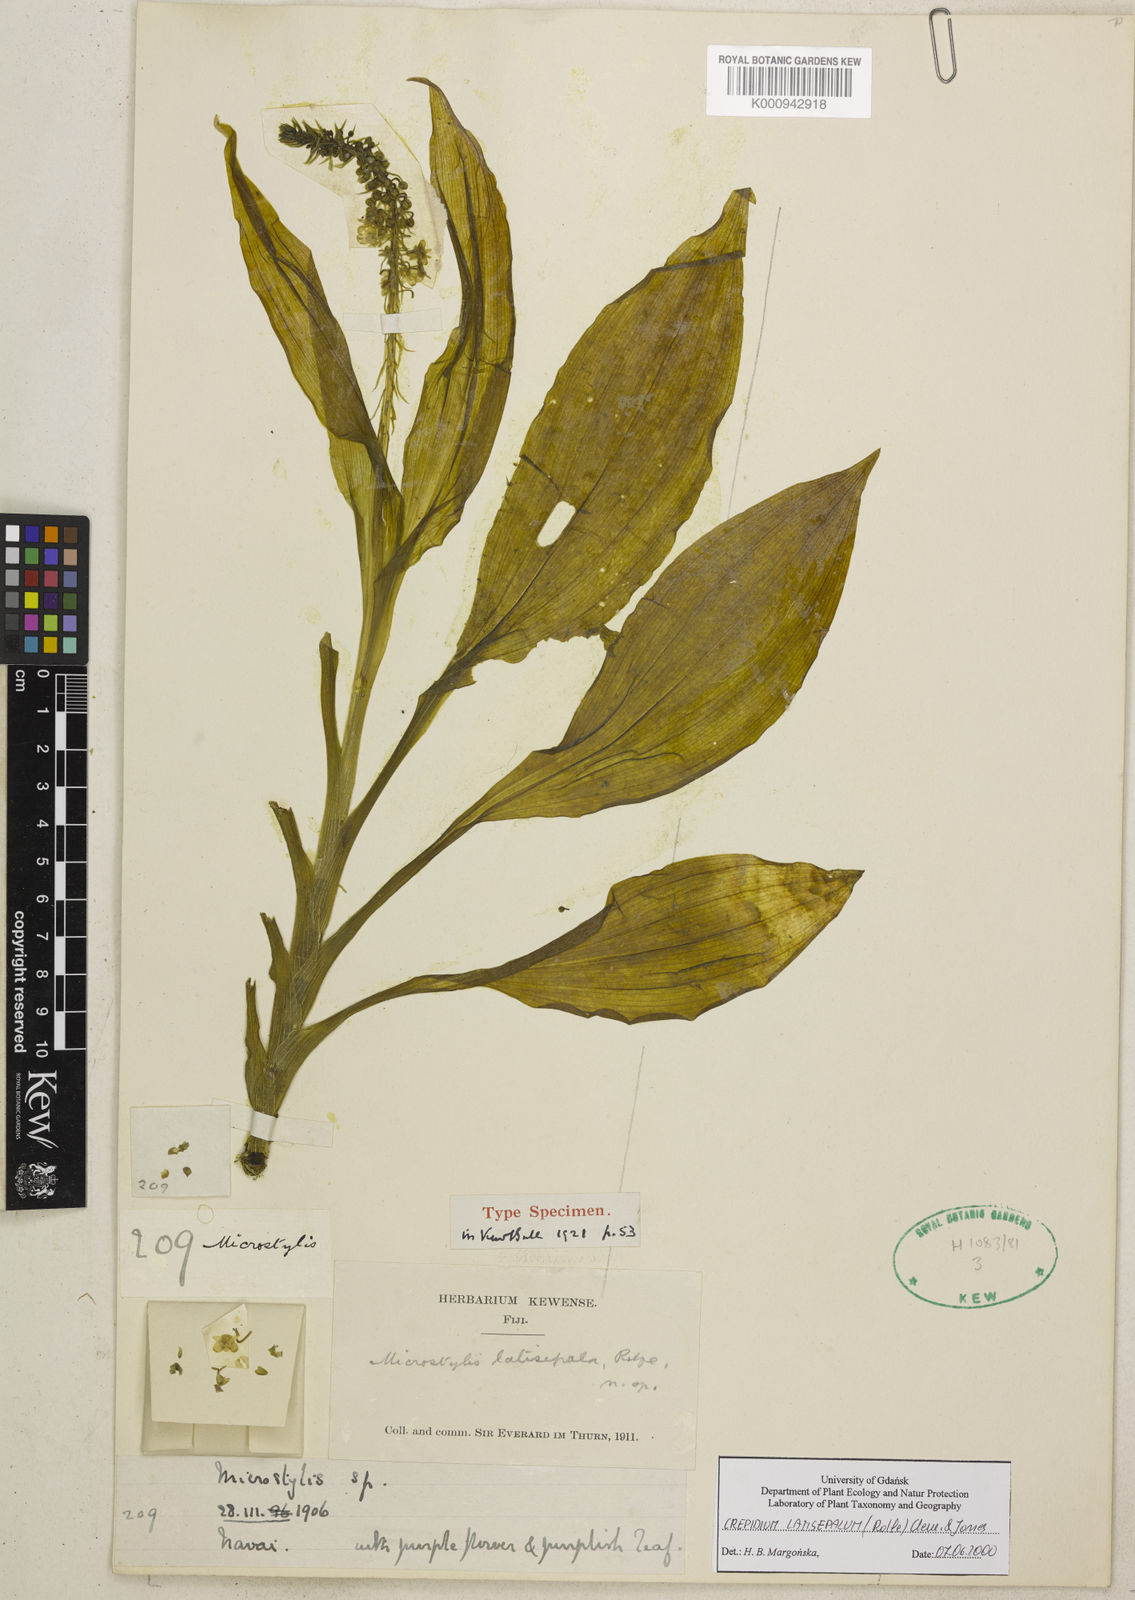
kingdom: Plantae
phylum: Tracheophyta
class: Liliopsida
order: Asparagales
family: Orchidaceae
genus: Crepidium
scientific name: Crepidium latisepalum
